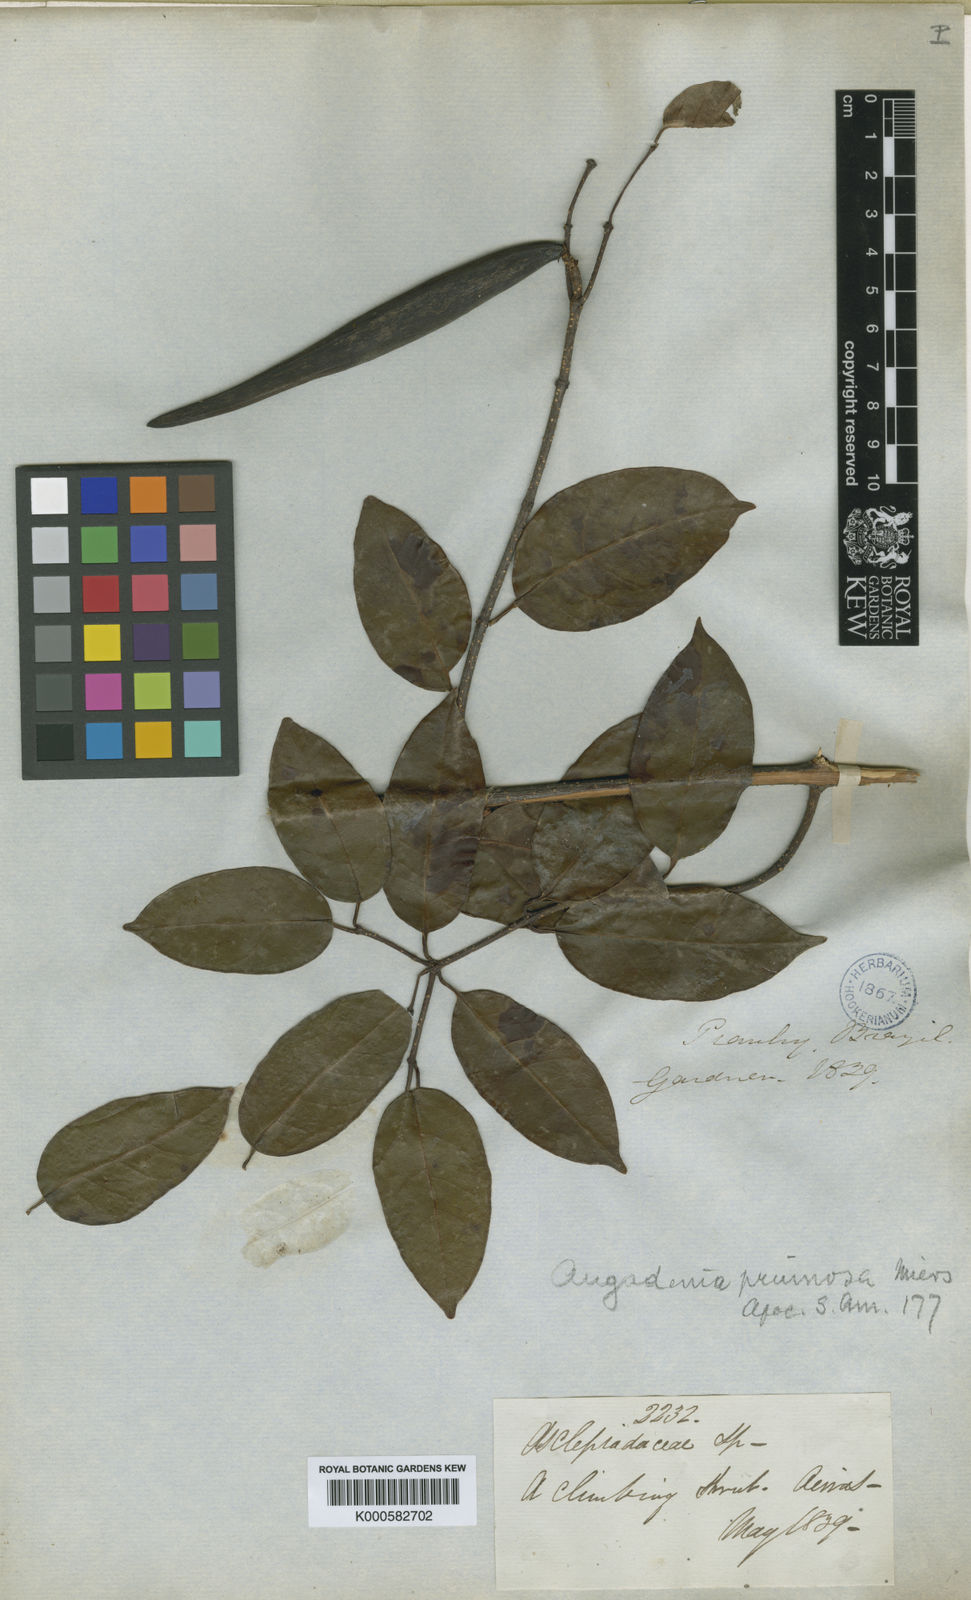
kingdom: Plantae
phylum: Tracheophyta
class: Magnoliopsida
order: Gentianales
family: Apocynaceae
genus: Odontadenia
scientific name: Odontadenia lutea
